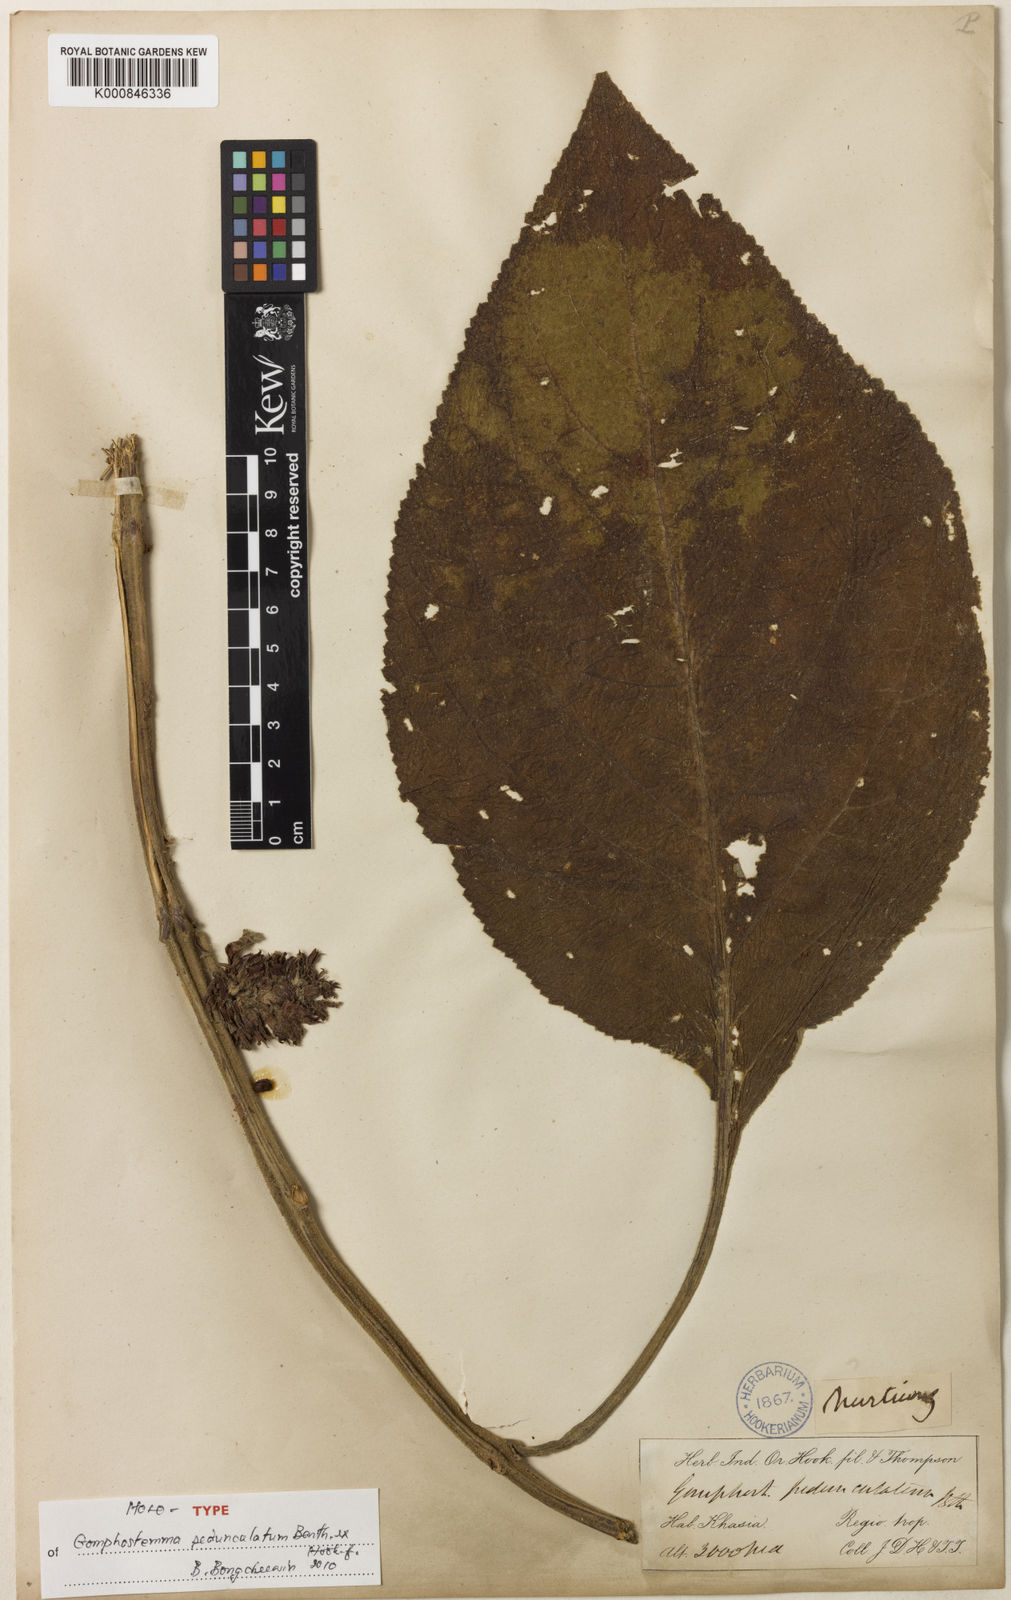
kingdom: Plantae
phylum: Tracheophyta
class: Magnoliopsida
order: Lamiales
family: Lamiaceae
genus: Gomphostemma
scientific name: Gomphostemma pedunculatum
